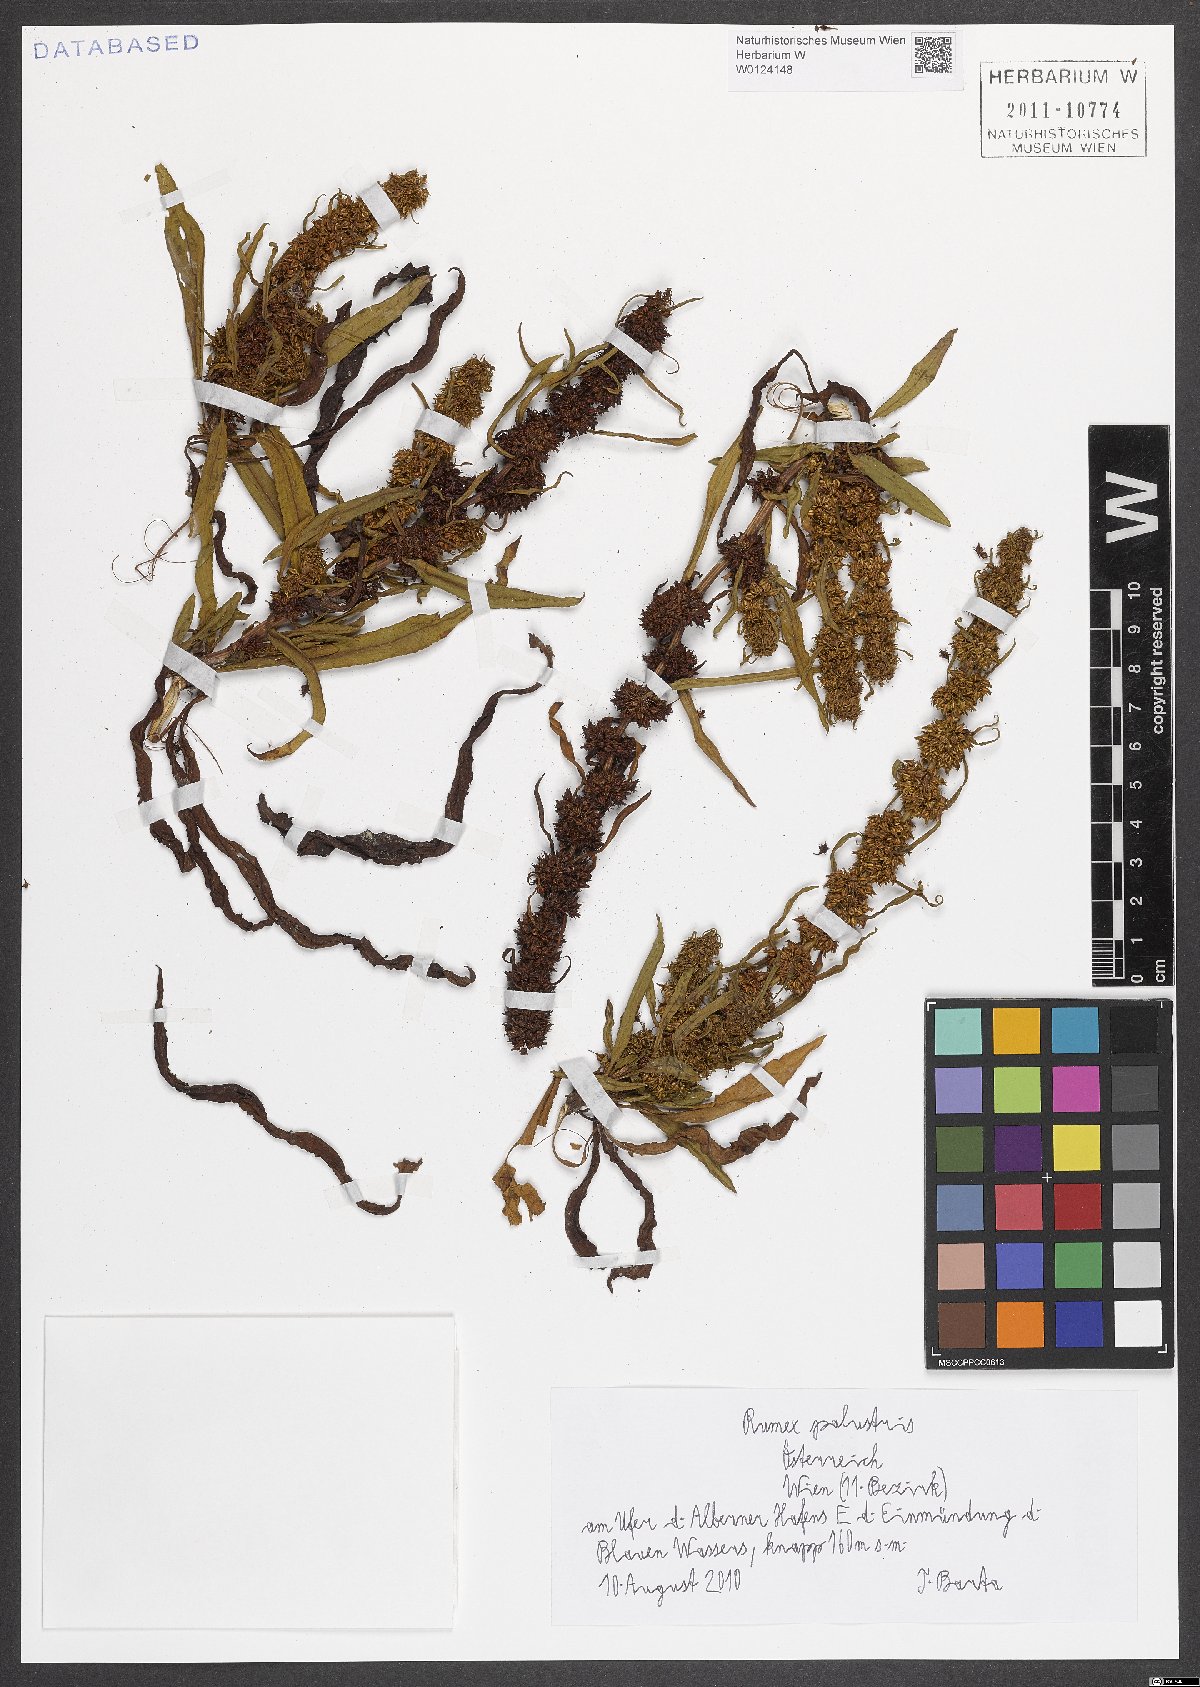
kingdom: Plantae
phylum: Tracheophyta
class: Magnoliopsida
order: Caryophyllales
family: Polygonaceae
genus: Rumex
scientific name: Rumex palustris
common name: Marsh dock
